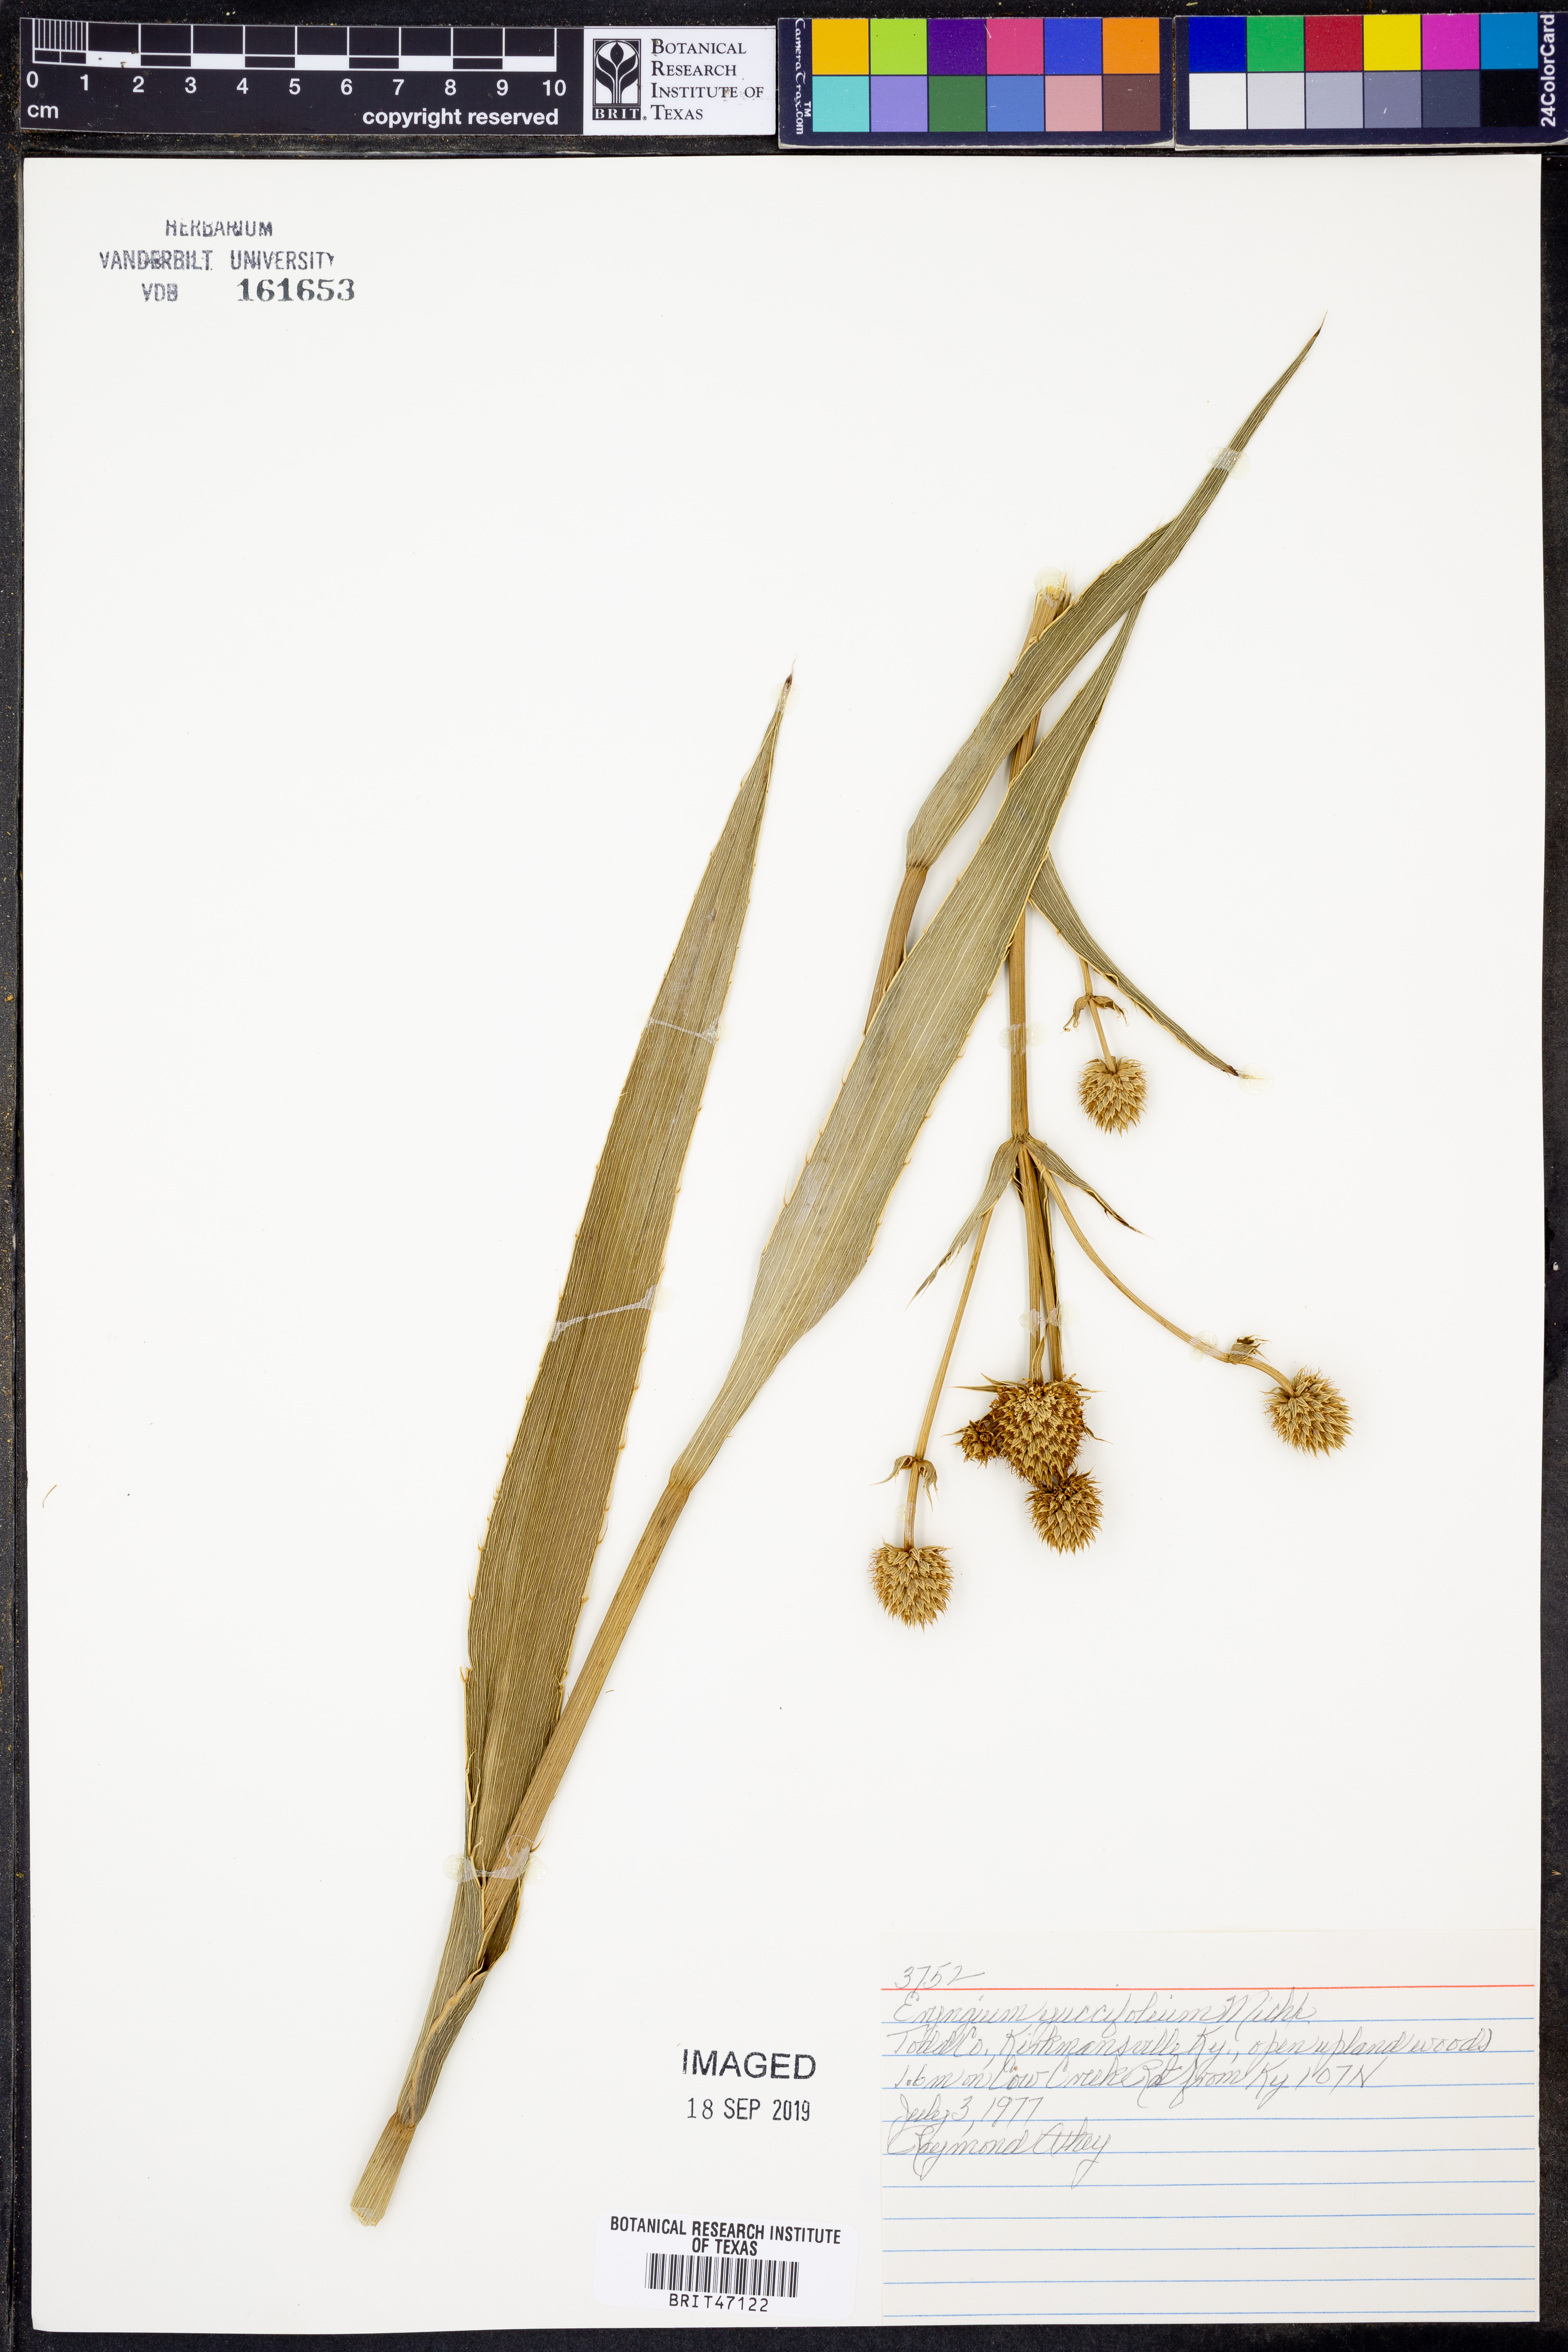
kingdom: Plantae
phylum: Tracheophyta
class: Magnoliopsida
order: Apiales
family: Apiaceae
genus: Eryngium
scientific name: Eryngium yuccifolium
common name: Button eryngo
